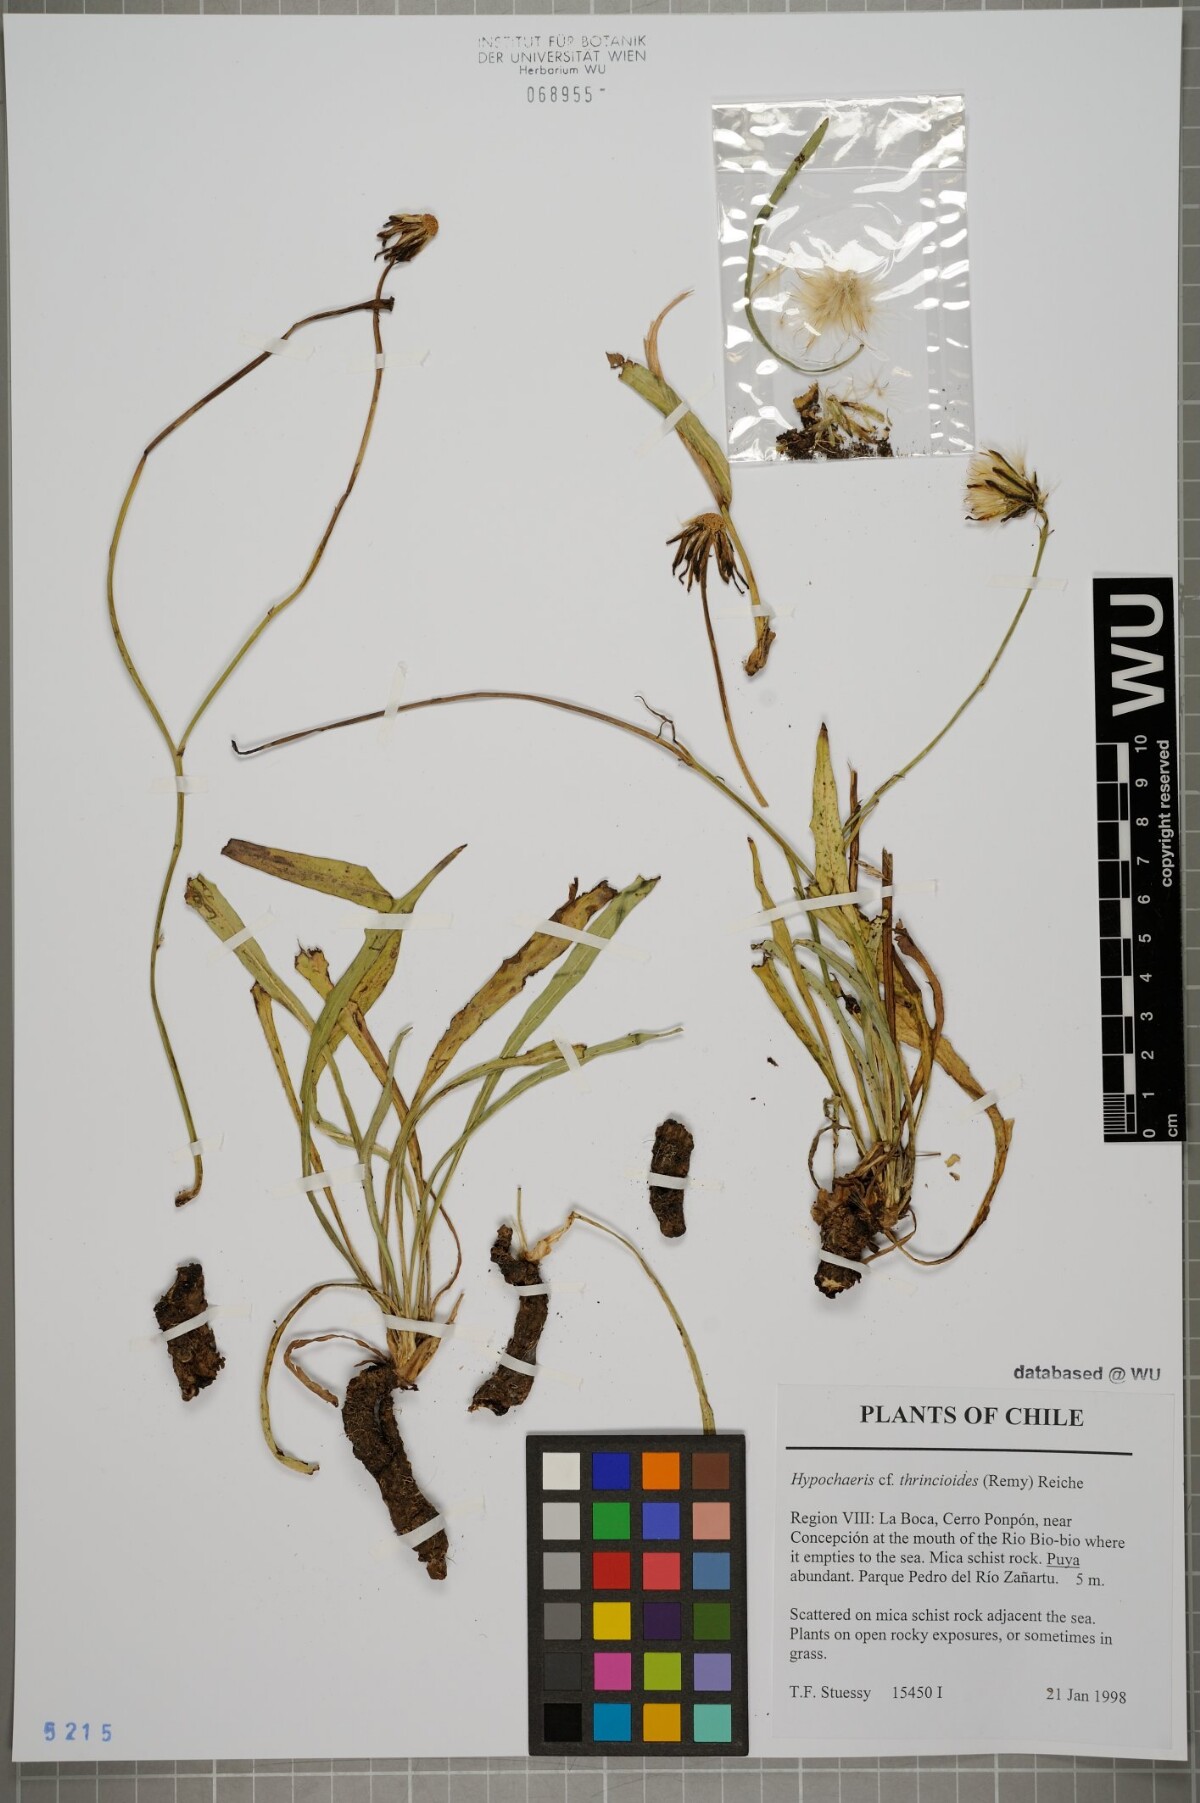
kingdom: Plantae
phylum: Tracheophyta
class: Magnoliopsida
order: Asterales
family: Asteraceae
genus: Hypochaeris
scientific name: Hypochaeris apargioides
